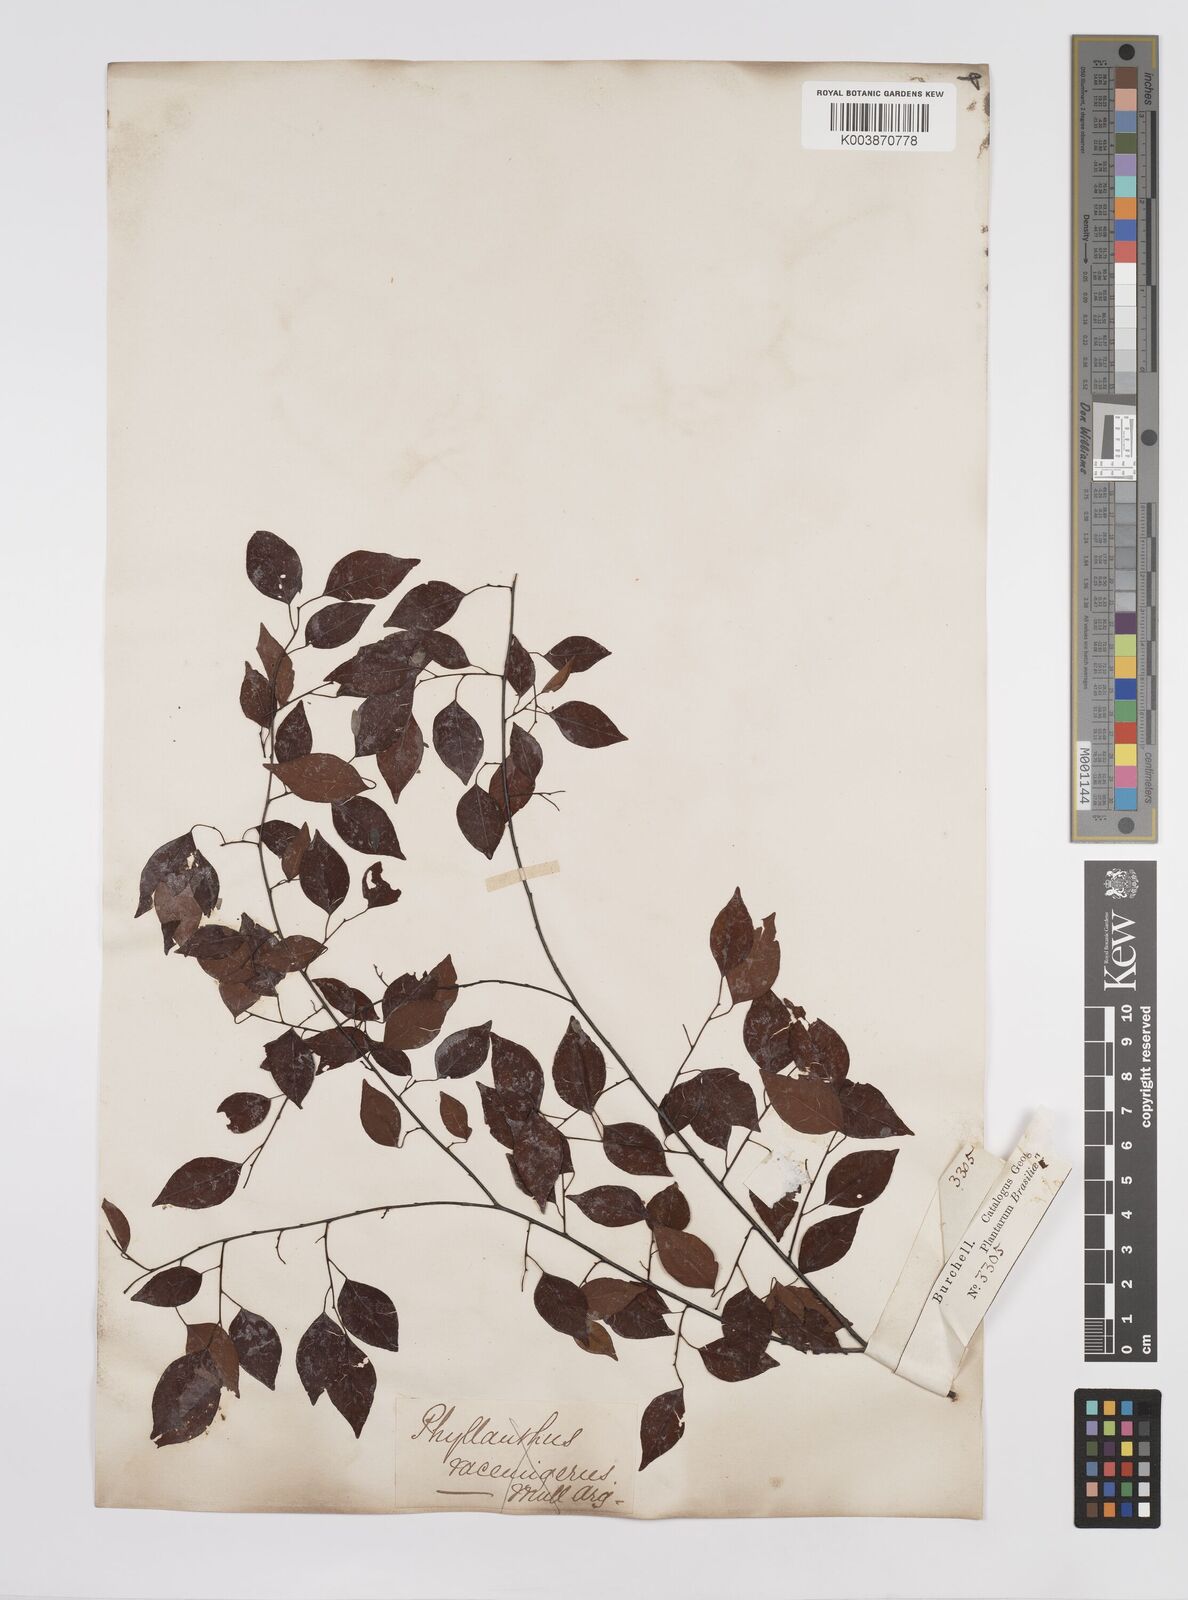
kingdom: Plantae
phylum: Tracheophyta
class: Magnoliopsida
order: Malpighiales
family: Euphorbiaceae
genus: Maprounea
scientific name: Maprounea guianensis
